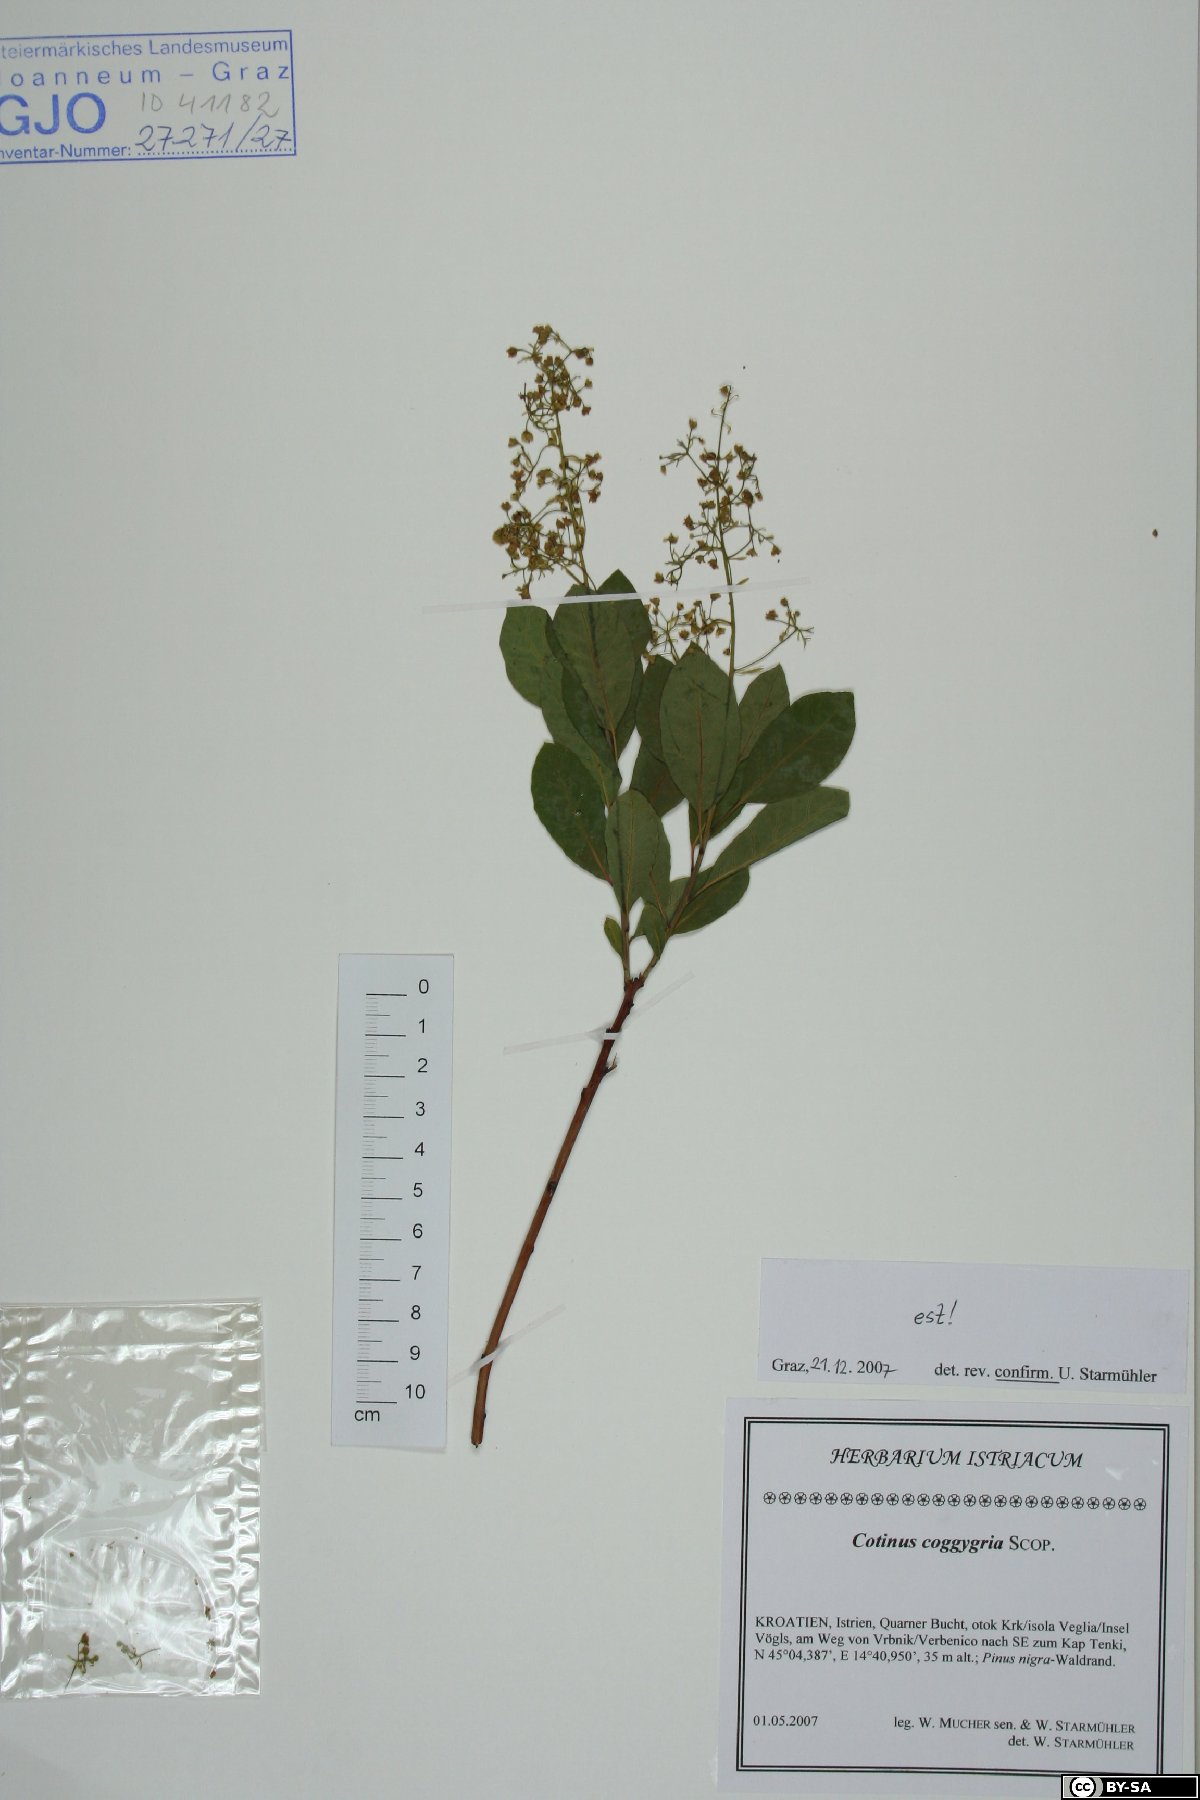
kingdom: Plantae
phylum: Tracheophyta
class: Magnoliopsida
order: Sapindales
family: Anacardiaceae
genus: Cotinus
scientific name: Cotinus coggygria
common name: Smoke-tree
